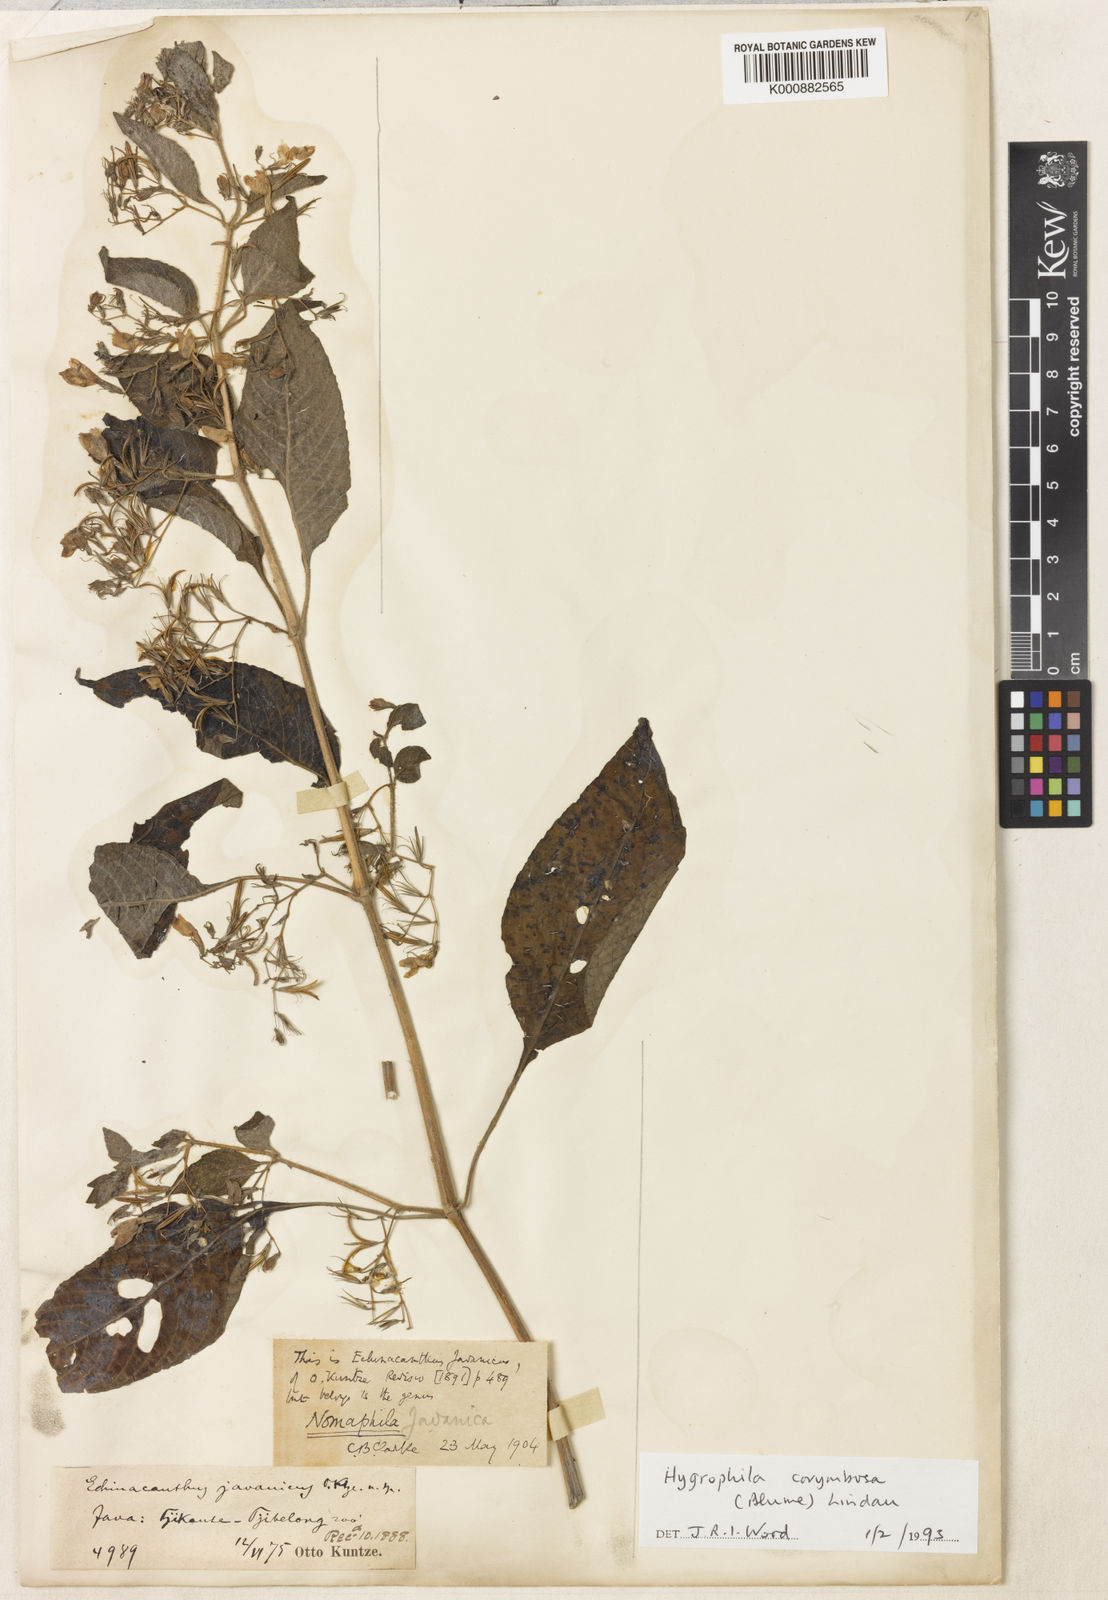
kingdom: Plantae
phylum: Tracheophyta
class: Magnoliopsida
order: Lamiales
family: Acanthaceae
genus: Hygrophila
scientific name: Hygrophila corymbosa
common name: Starhorn
